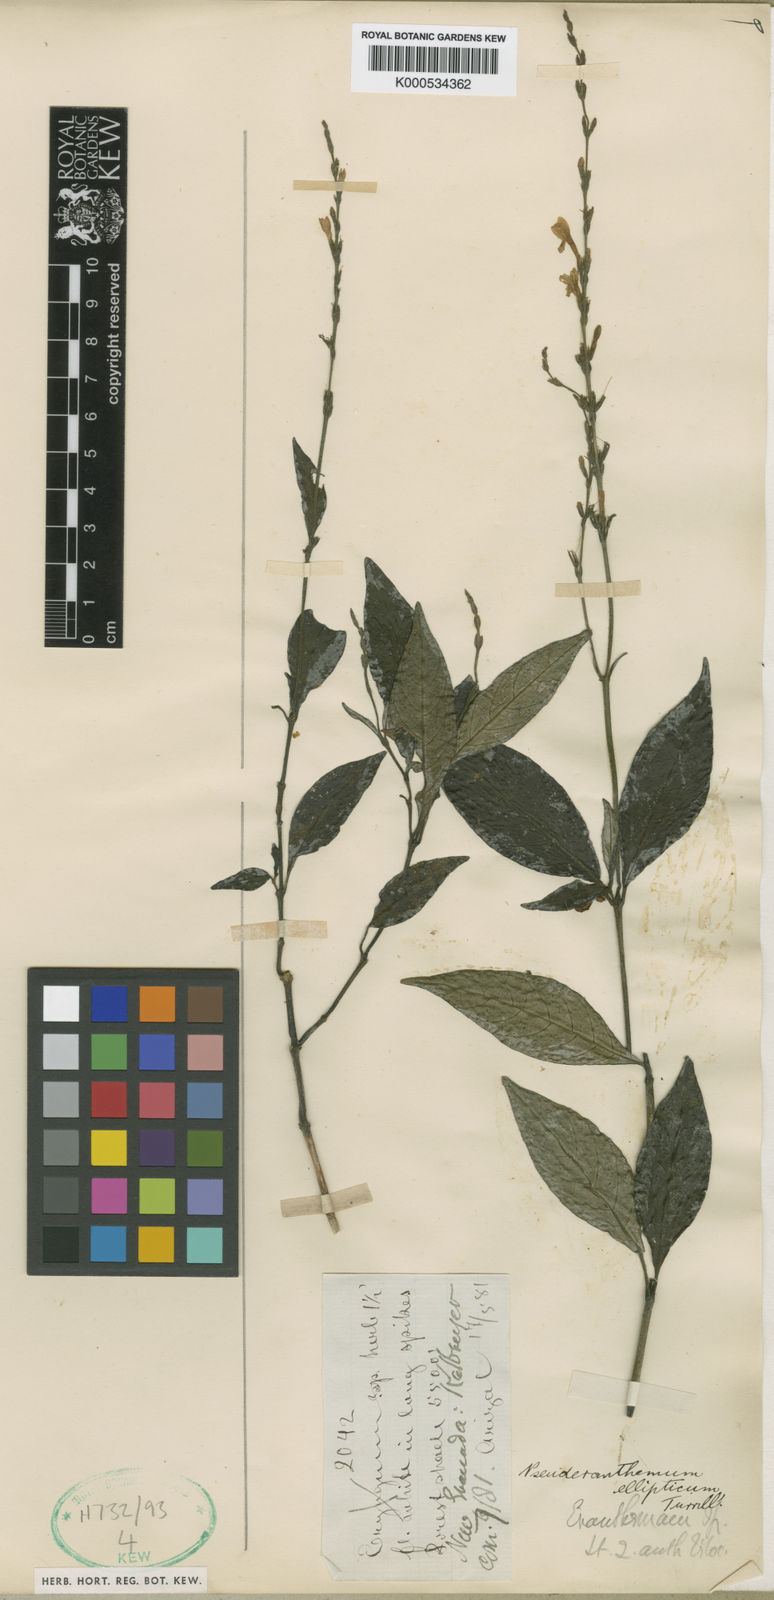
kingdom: Plantae
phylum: Tracheophyta
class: Magnoliopsida
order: Lamiales
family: Acanthaceae
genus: Pseuderanthemum
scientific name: Pseuderanthemum ellipticum
